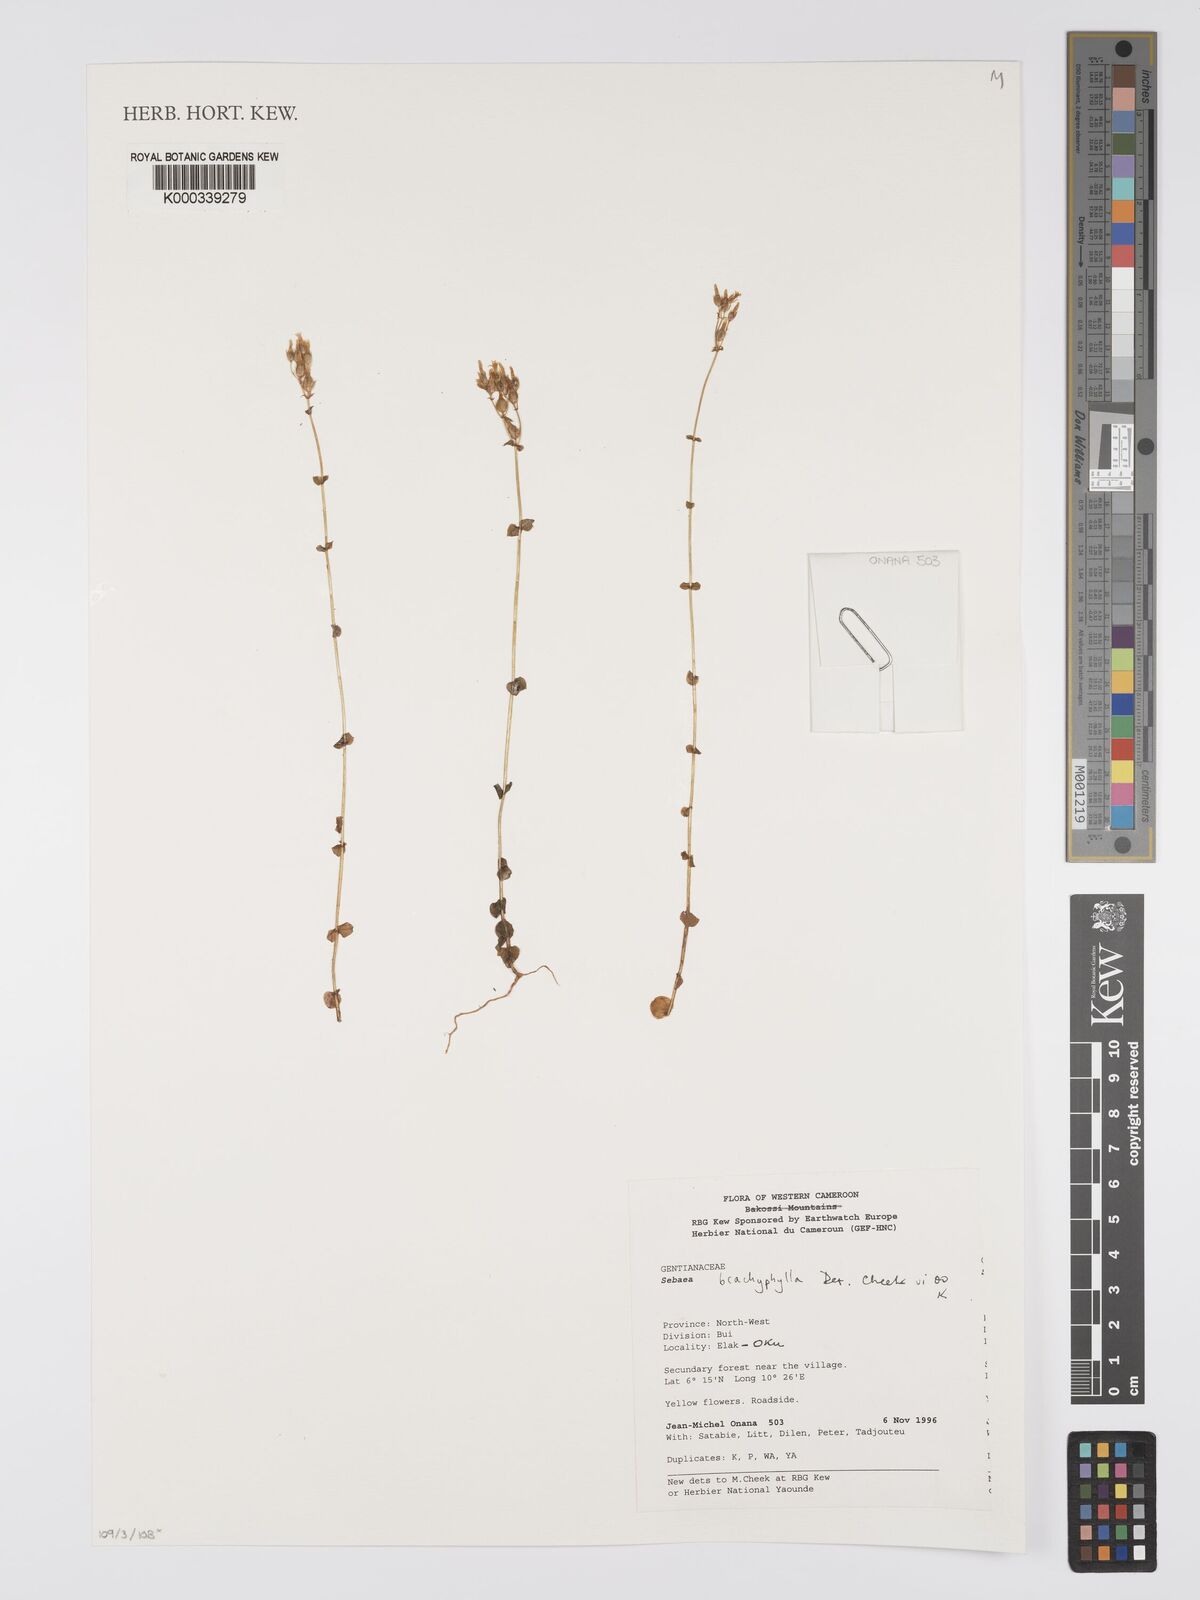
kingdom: Plantae
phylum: Tracheophyta
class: Magnoliopsida
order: Gentianales
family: Gentianaceae
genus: Sebaea
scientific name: Sebaea brachyphylla
